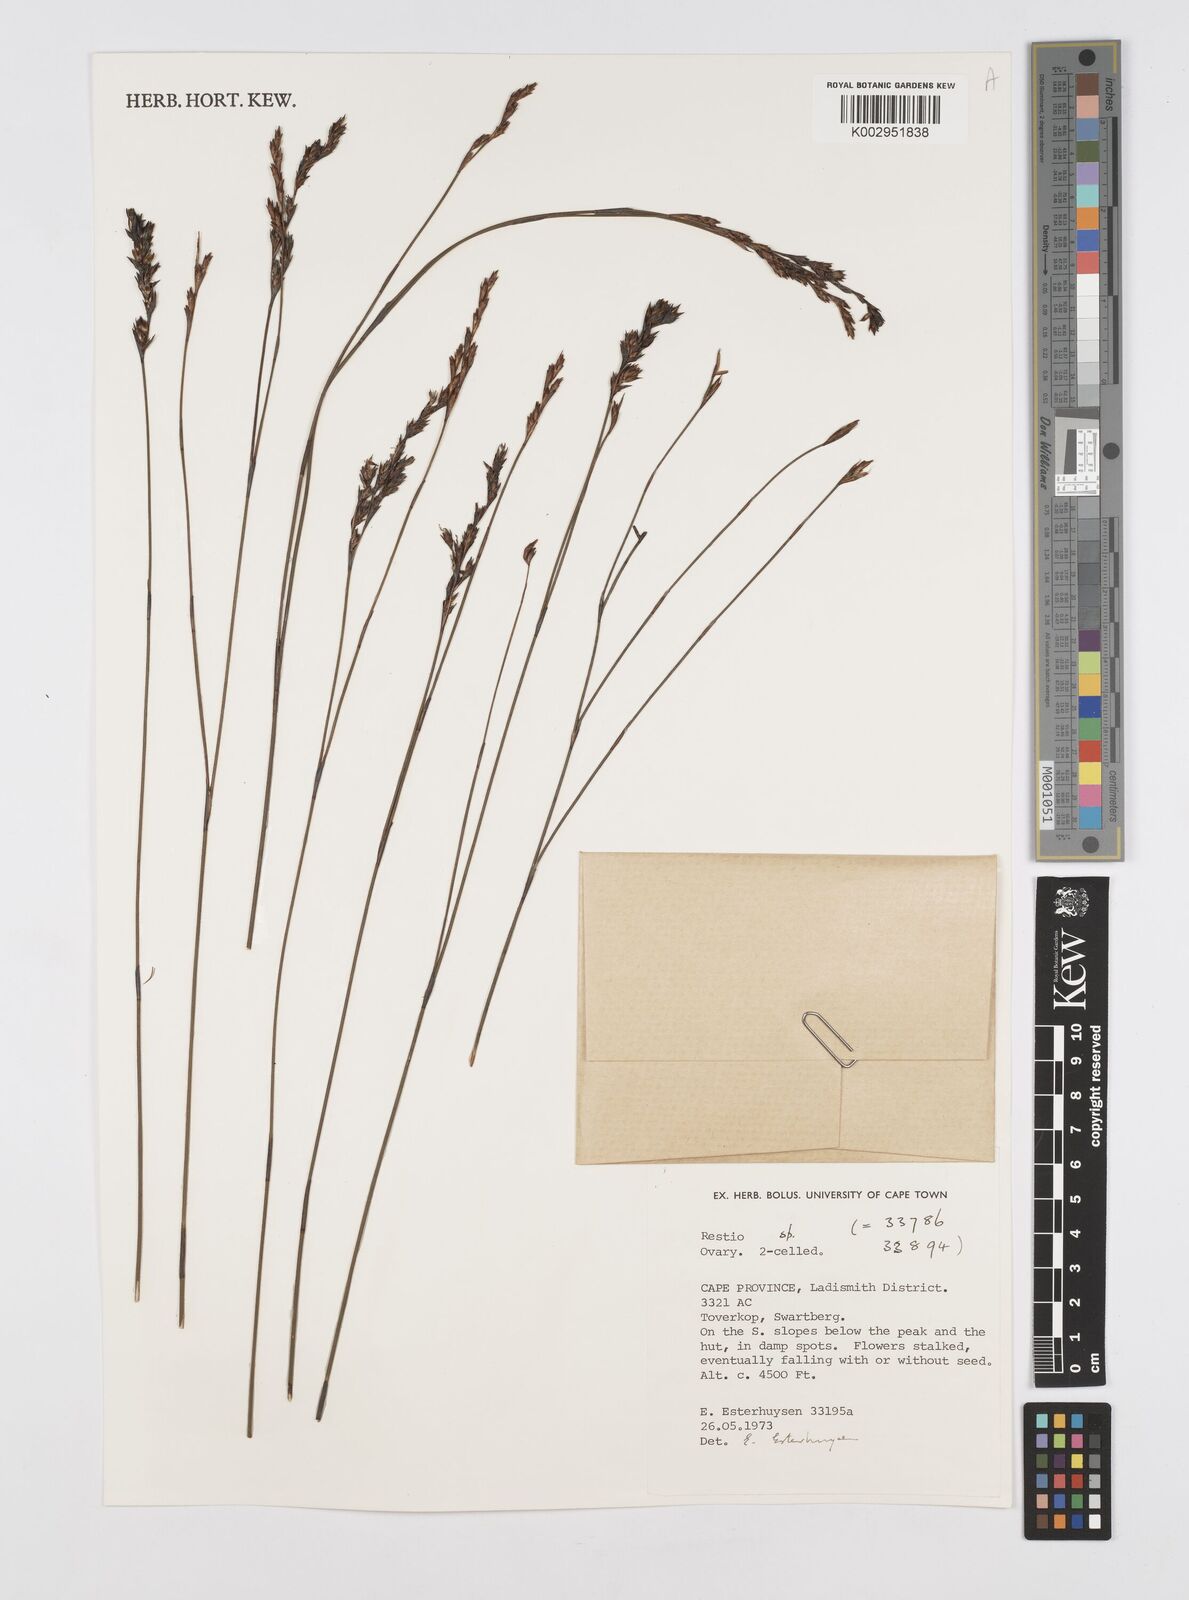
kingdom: Plantae
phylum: Tracheophyta
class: Liliopsida
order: Poales
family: Restionaceae
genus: Restio
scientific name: Restio
